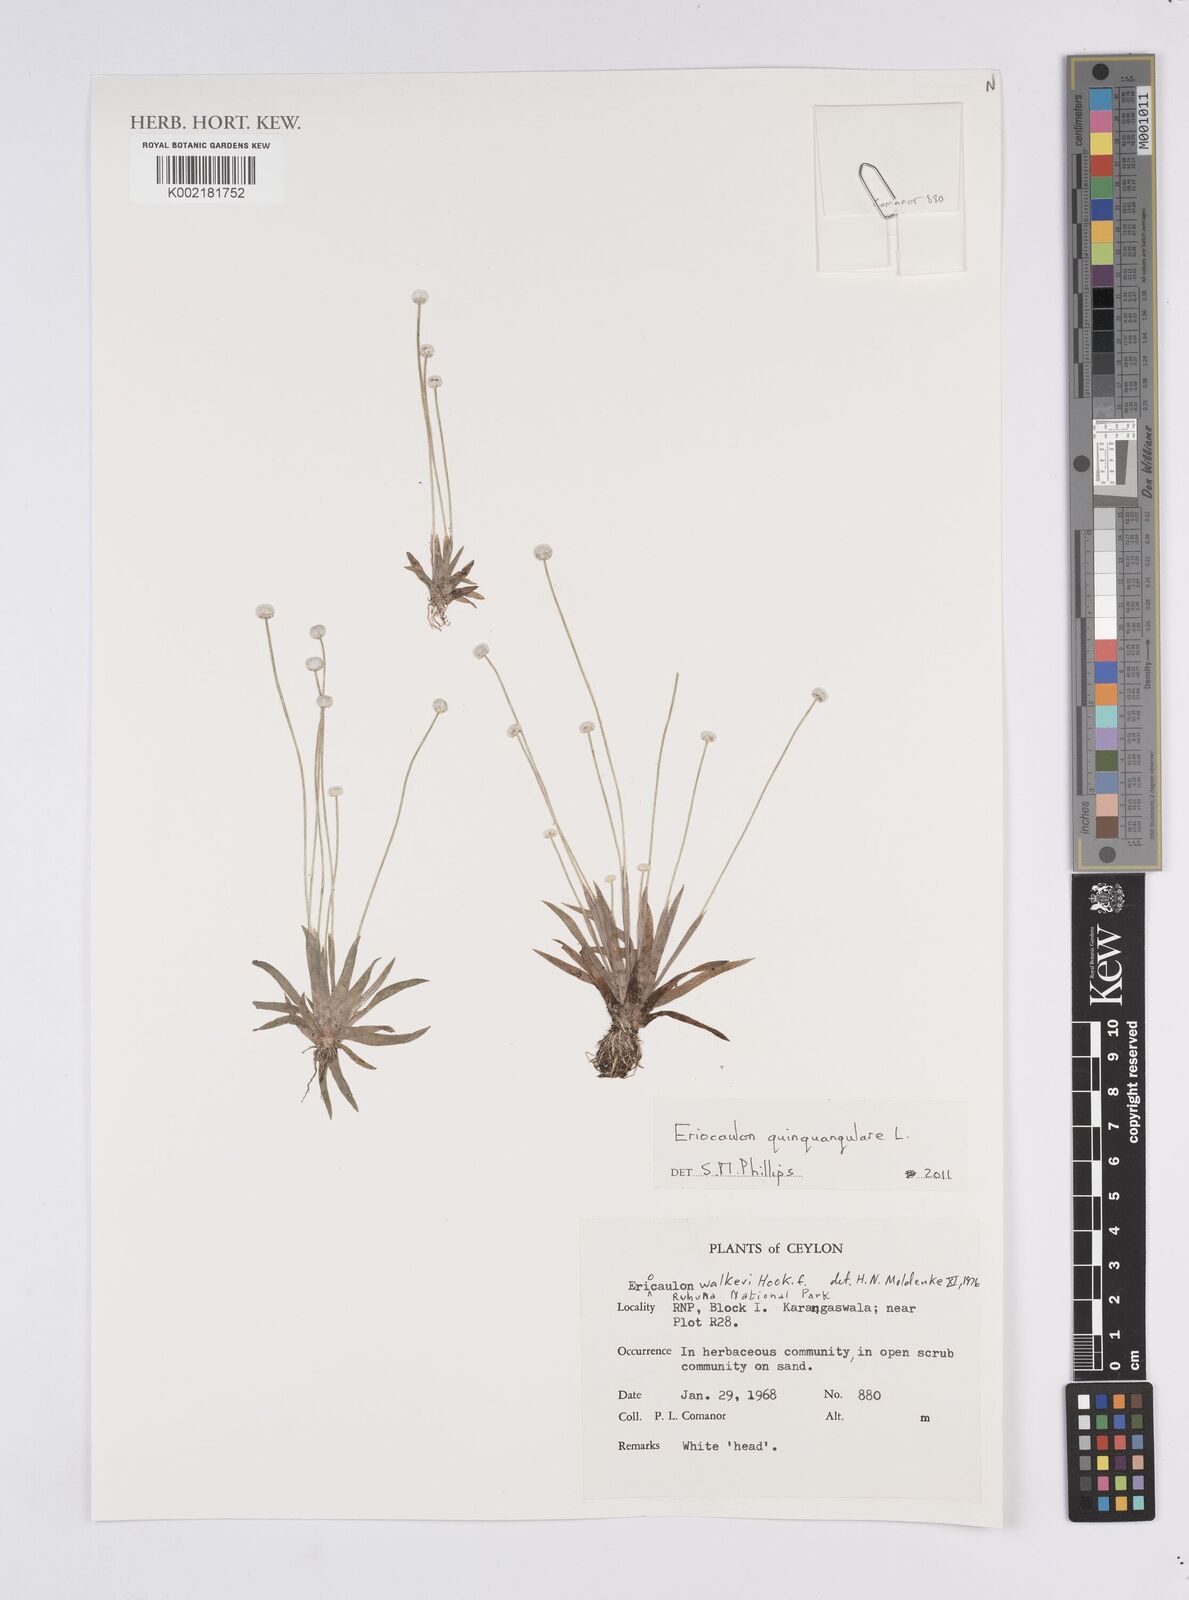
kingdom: Plantae
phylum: Tracheophyta
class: Liliopsida
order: Poales
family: Eriocaulaceae
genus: Eriocaulon
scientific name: Eriocaulon quinquangulare
